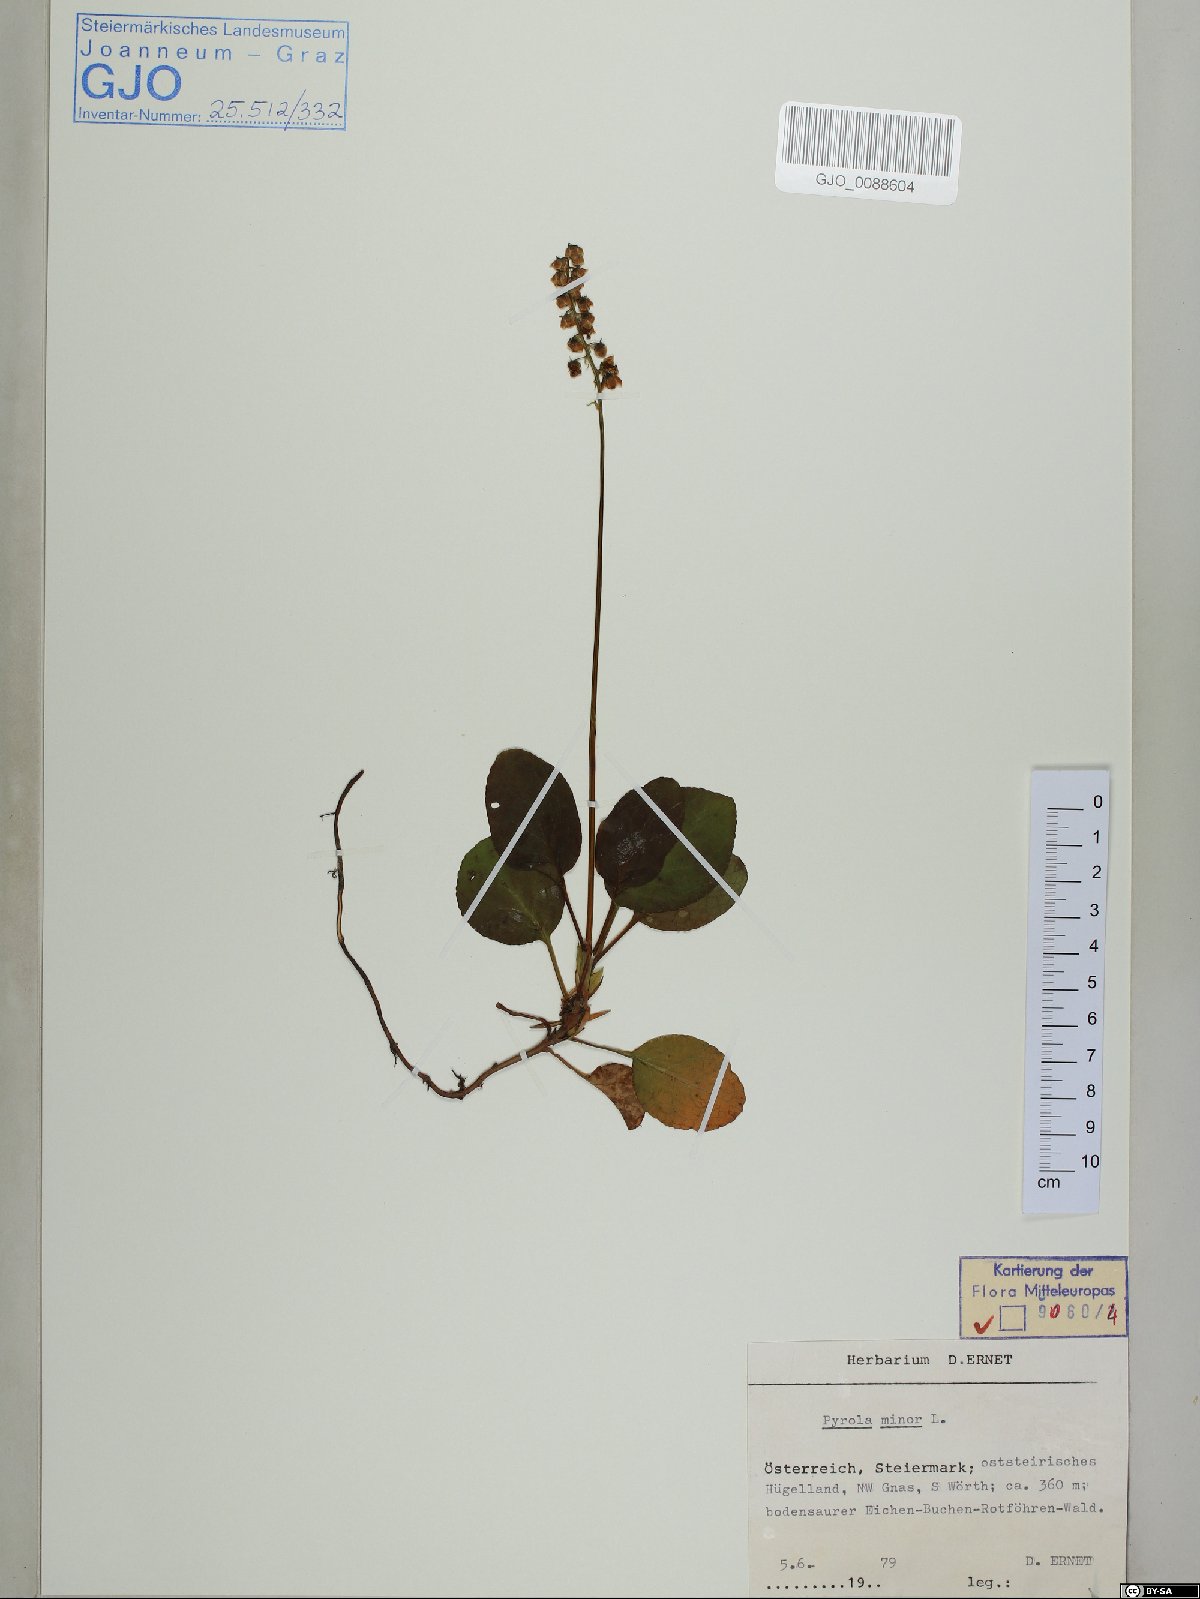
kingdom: Plantae
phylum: Tracheophyta
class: Magnoliopsida
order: Ericales
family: Ericaceae
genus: Pyrola
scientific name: Pyrola minor
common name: Common wintergreen
